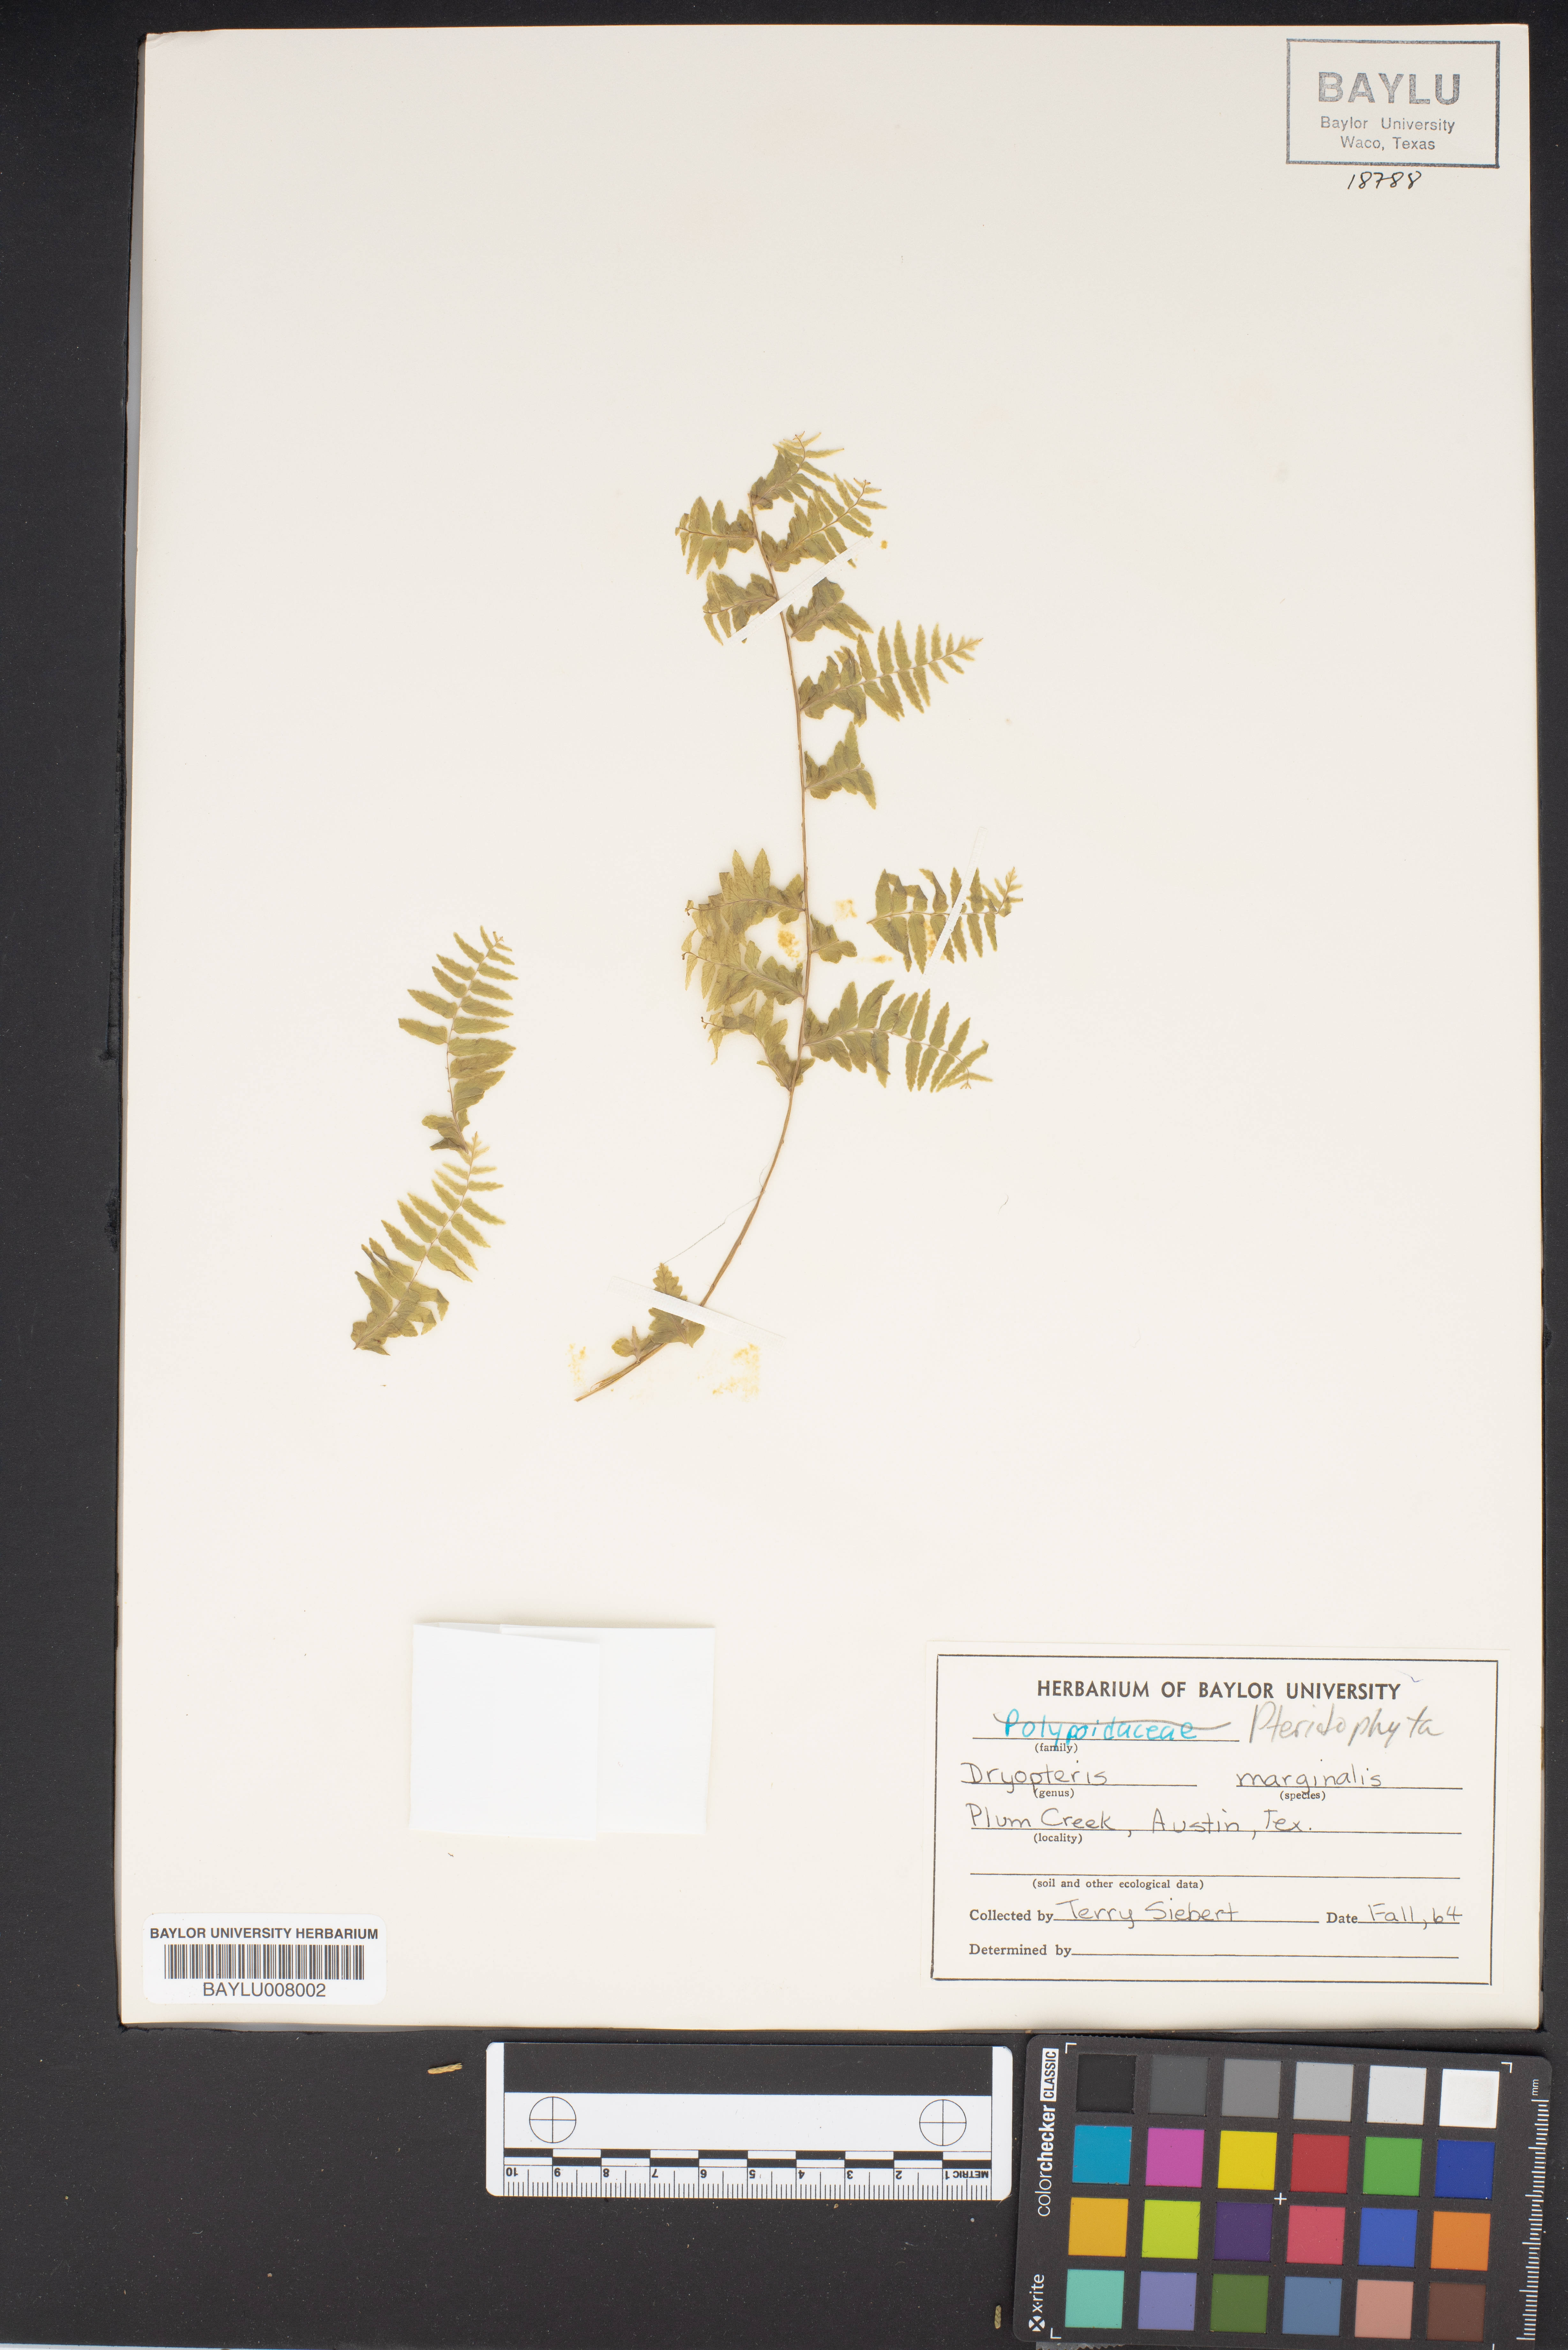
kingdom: Plantae
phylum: Tracheophyta
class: Polypodiopsida
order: Polypodiales
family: Dryopteridaceae
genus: Dryopteris
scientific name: Dryopteris marginalis
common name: Marginal wood fern
